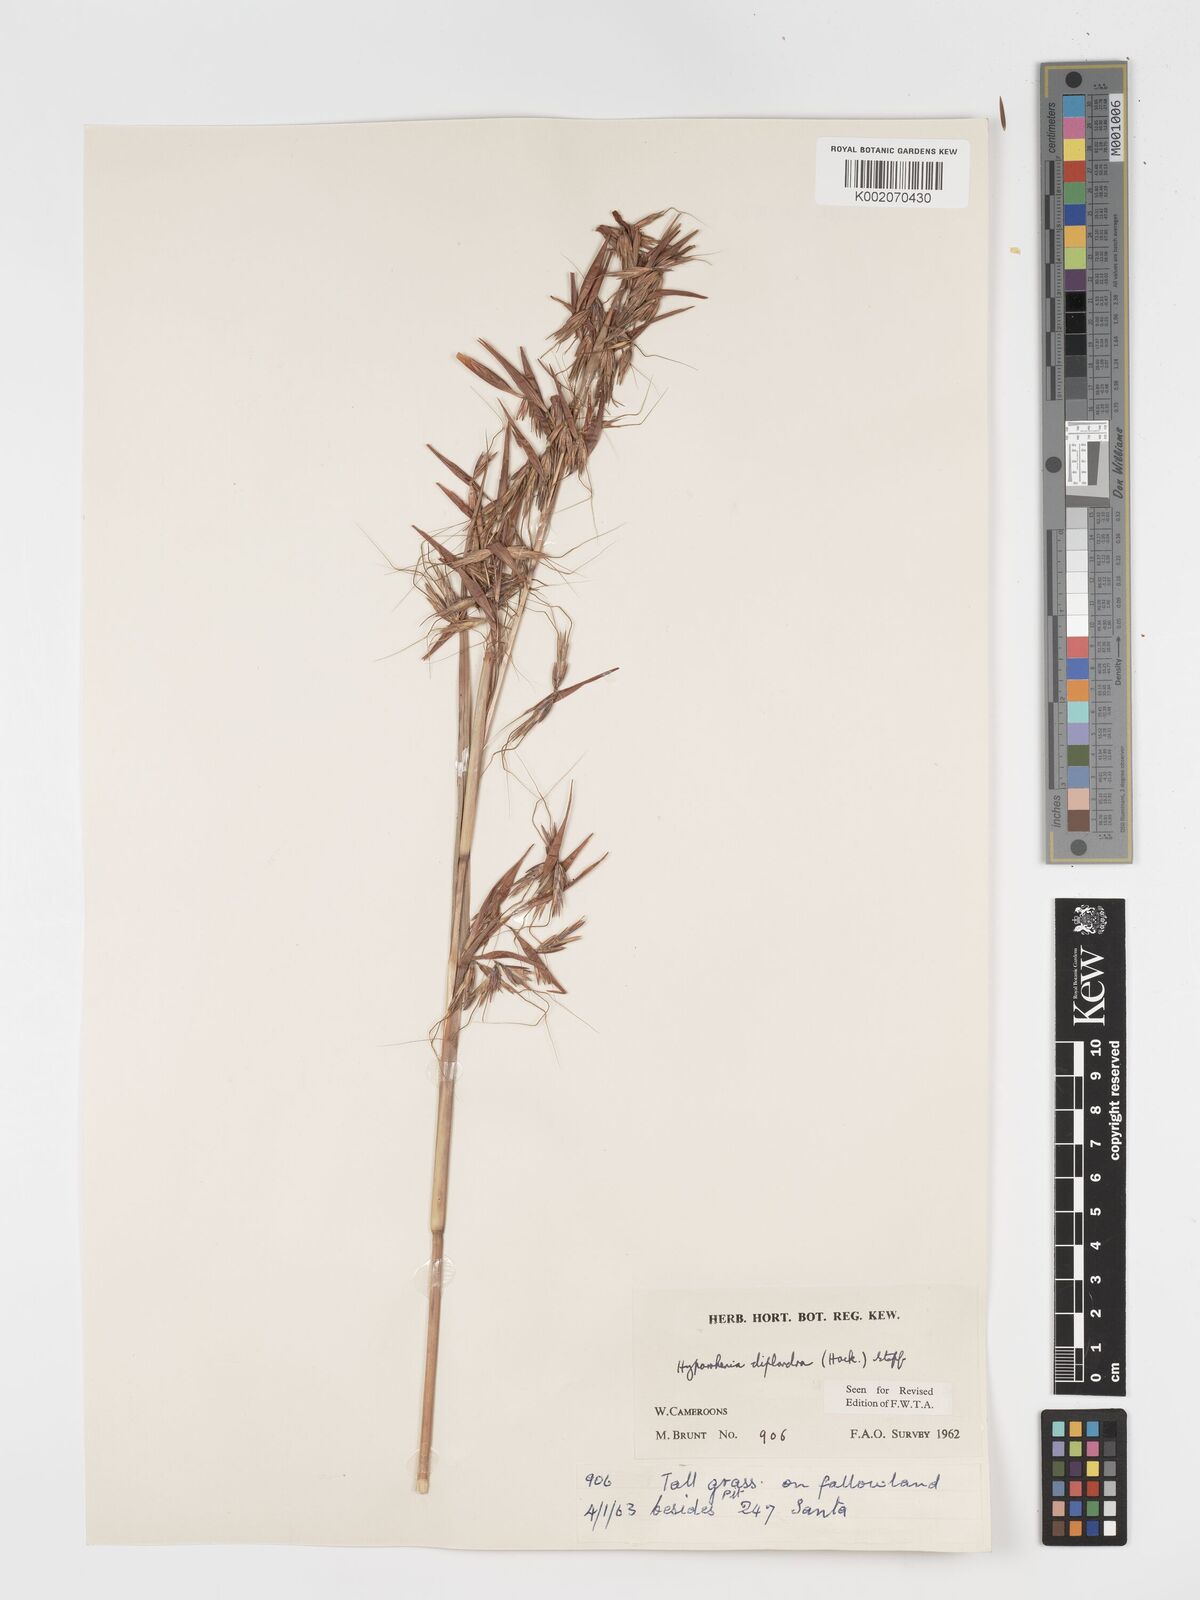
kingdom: Plantae
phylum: Tracheophyta
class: Liliopsida
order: Poales
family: Poaceae
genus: Hyparrhenia
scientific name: Hyparrhenia diplandra
